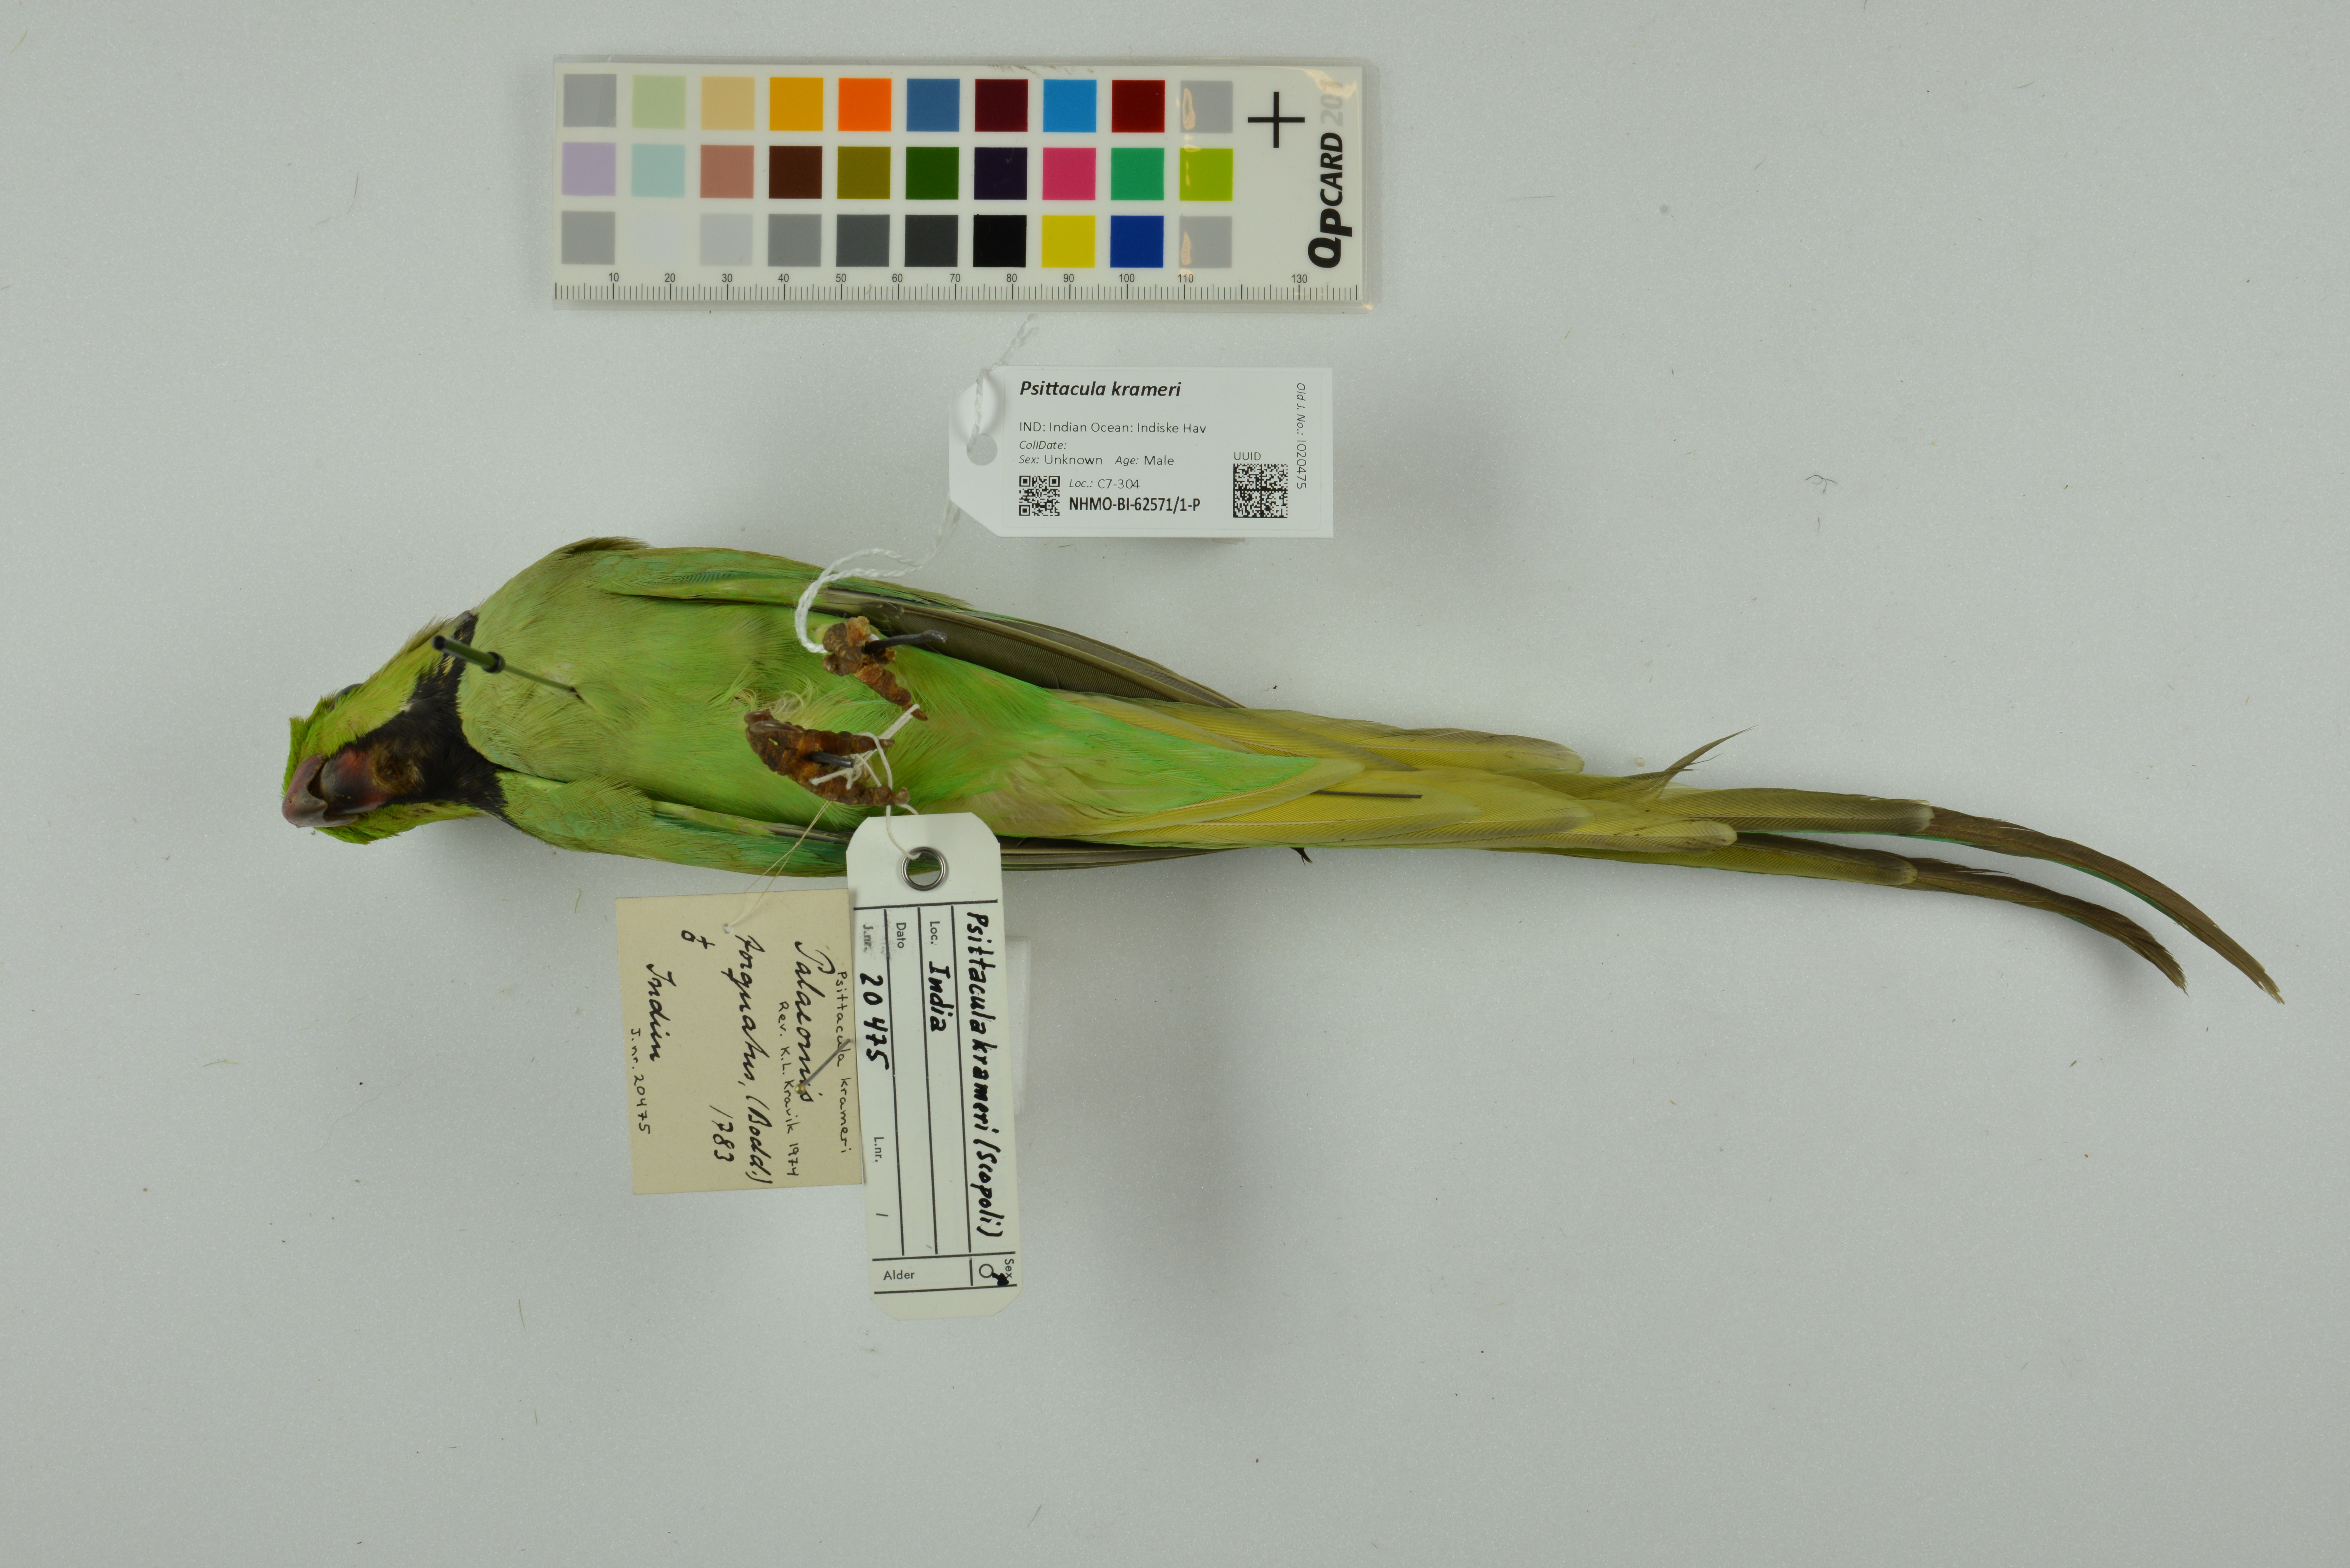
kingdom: Animalia
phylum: Chordata
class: Aves
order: Psittaciformes
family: Psittacidae
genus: Psittacula
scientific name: Psittacula krameri
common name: Rose-ringed parakeet
